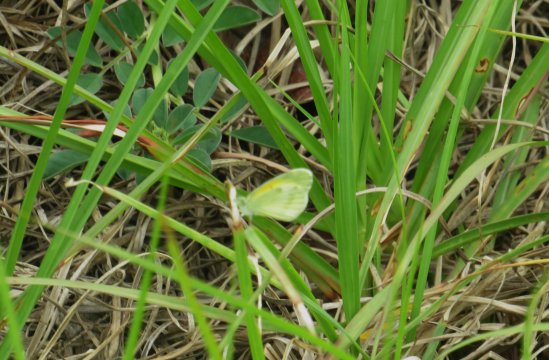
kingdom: Animalia
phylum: Arthropoda
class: Insecta
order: Lepidoptera
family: Pieridae
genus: Nathalis
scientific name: Nathalis iole
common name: Dainty Sulphur
